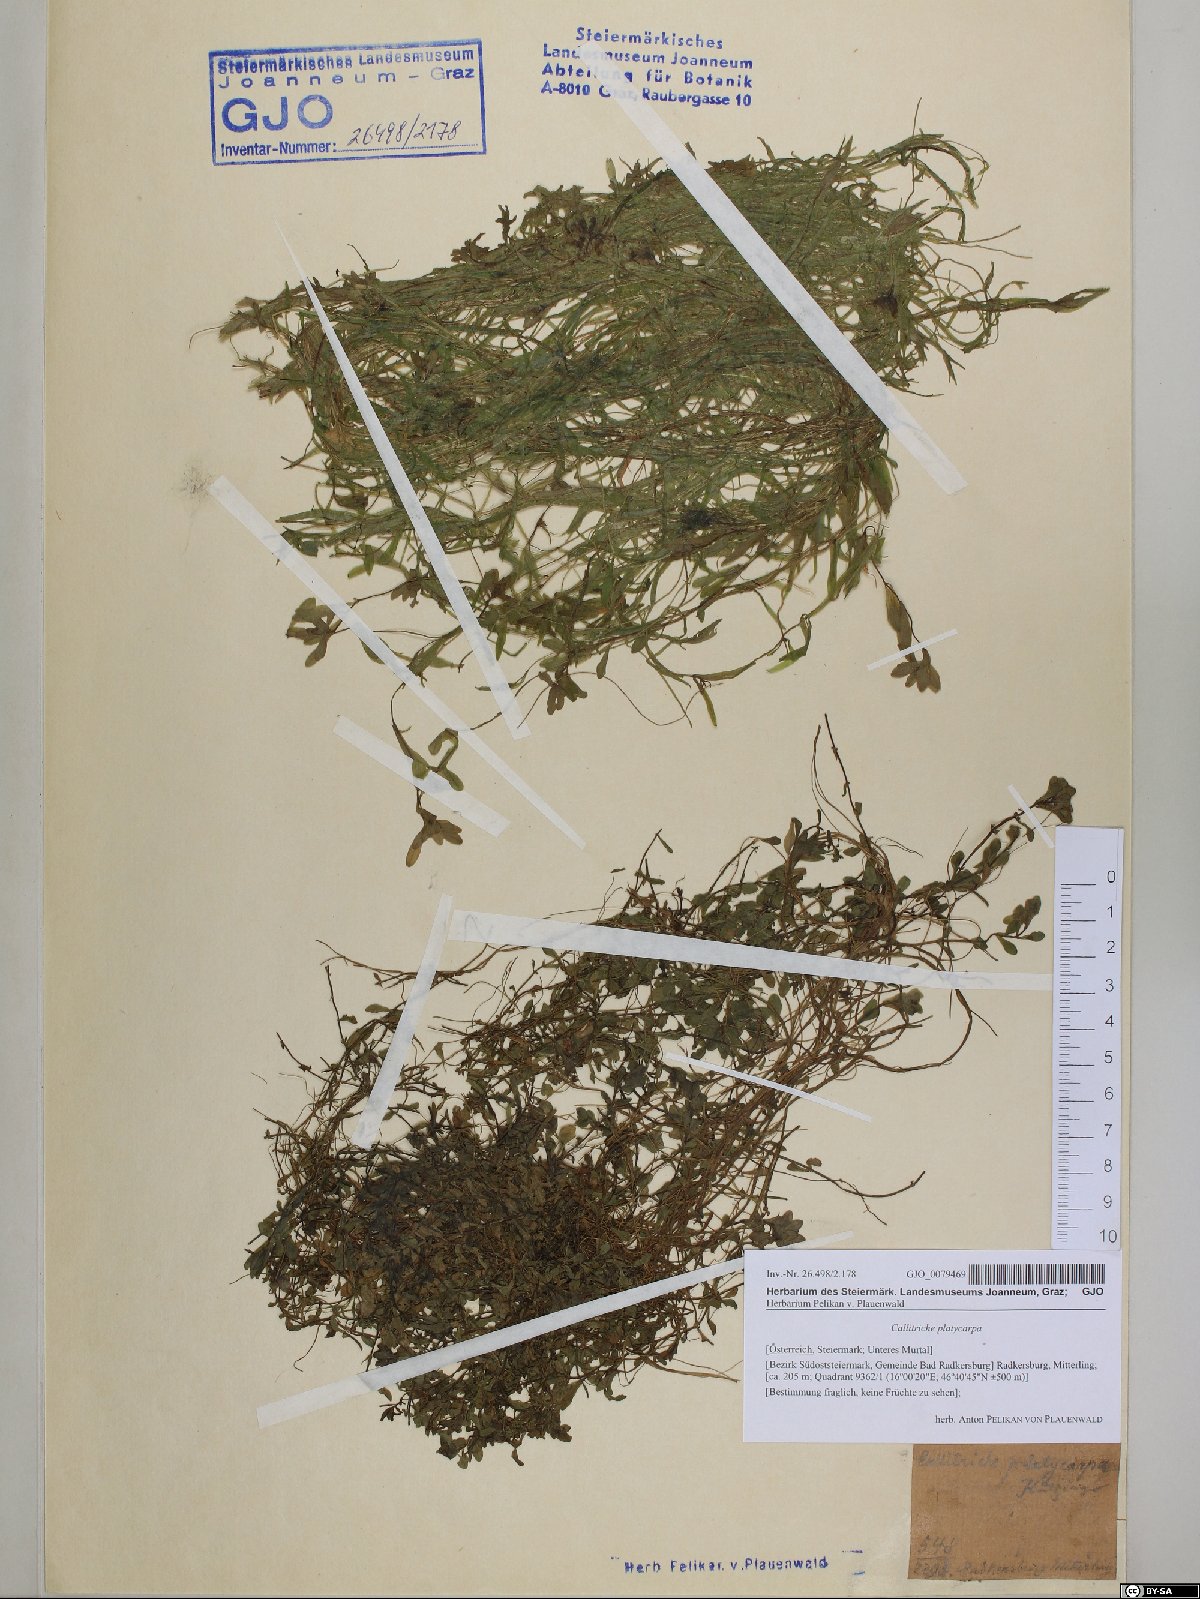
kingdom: Plantae
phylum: Tracheophyta
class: Magnoliopsida
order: Lamiales
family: Plantaginaceae
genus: Callitriche
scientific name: Callitriche platycarpa
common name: Various-leaved water-starwort
